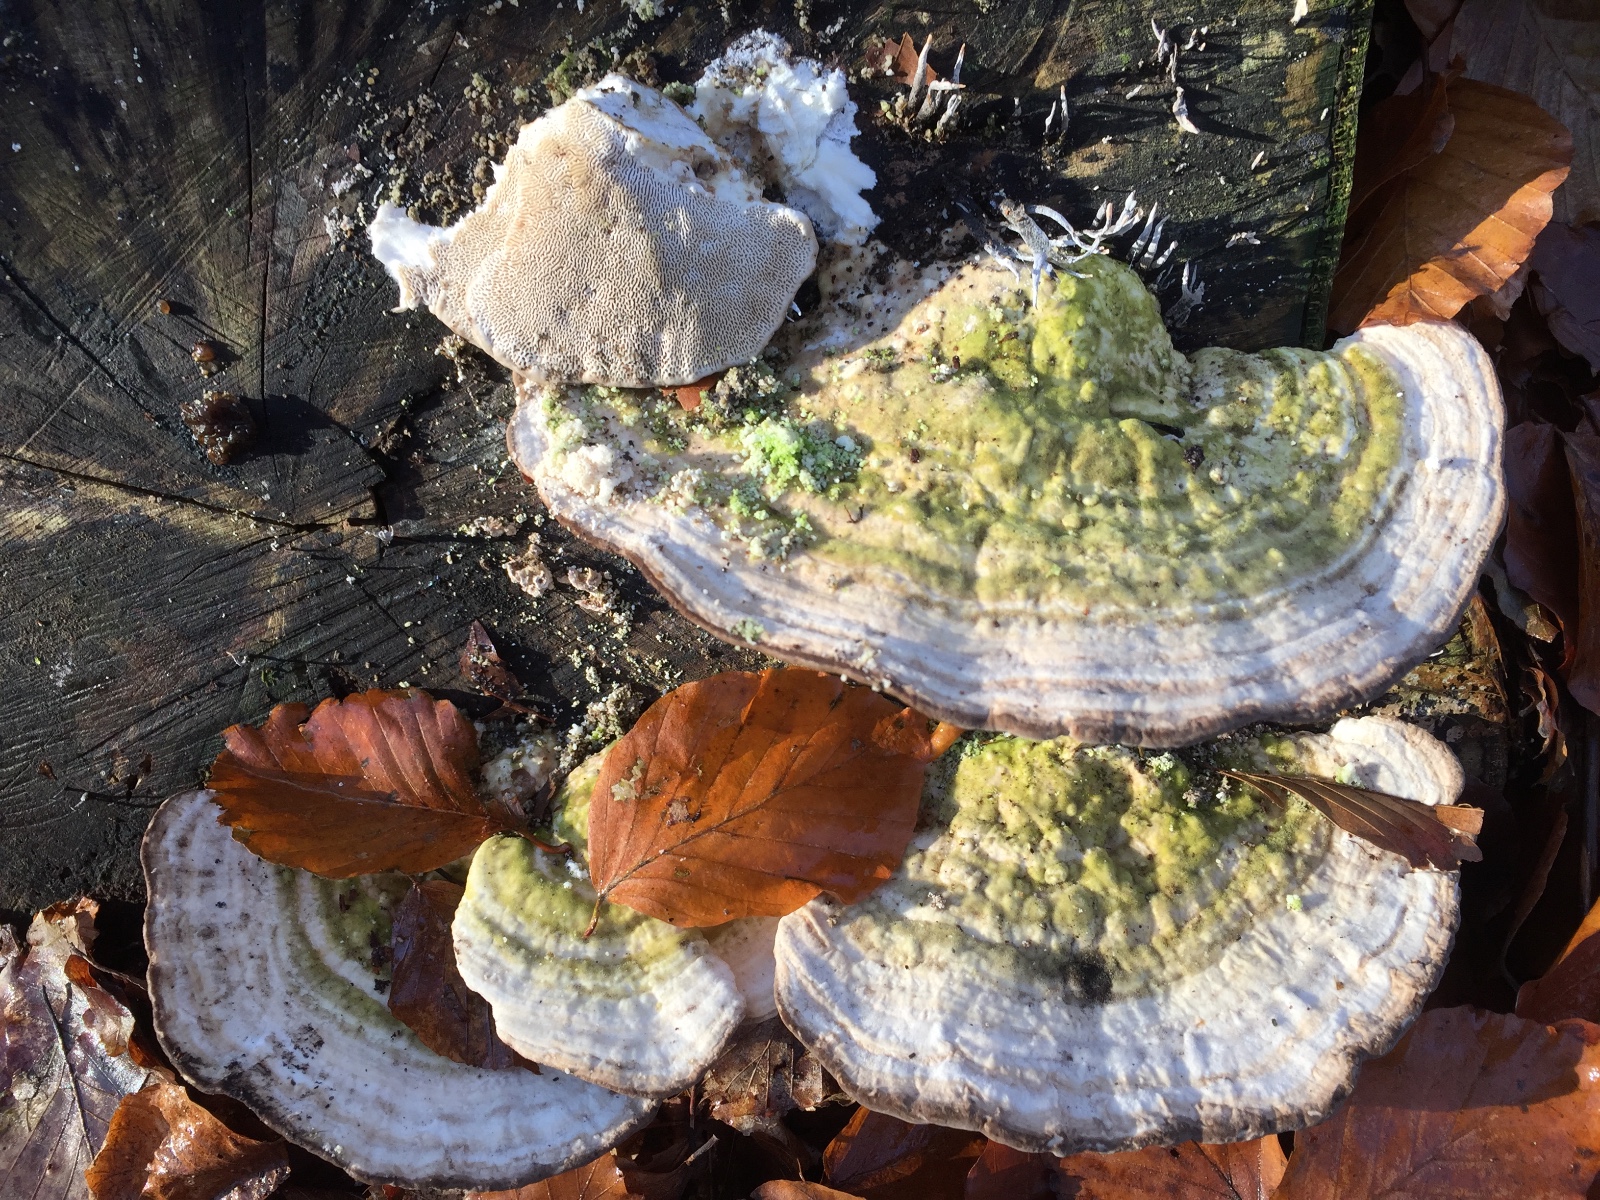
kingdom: Fungi
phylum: Basidiomycota
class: Agaricomycetes
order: Polyporales
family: Polyporaceae
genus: Trametes
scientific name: Trametes gibbosa
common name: puklet læderporesvamp
